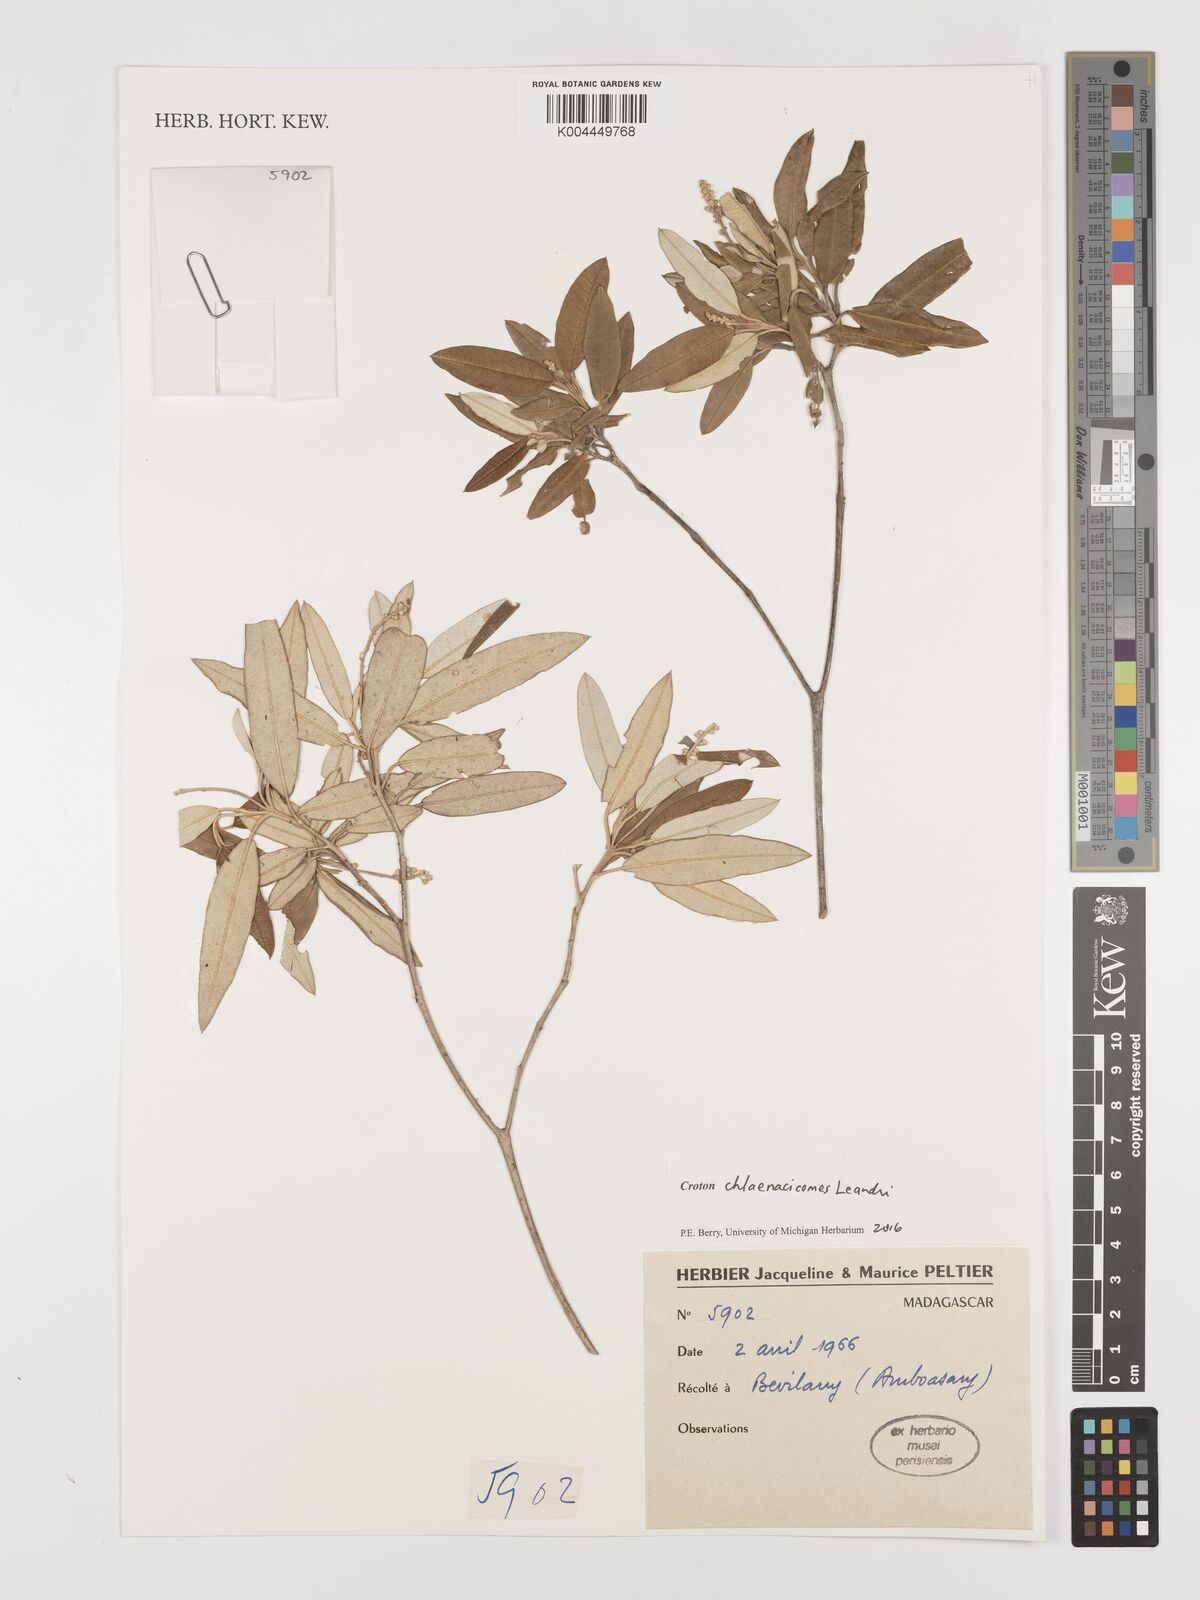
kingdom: Plantae
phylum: Tracheophyta
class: Magnoliopsida
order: Malpighiales
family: Euphorbiaceae
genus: Croton
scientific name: Croton chlaenacicomes
